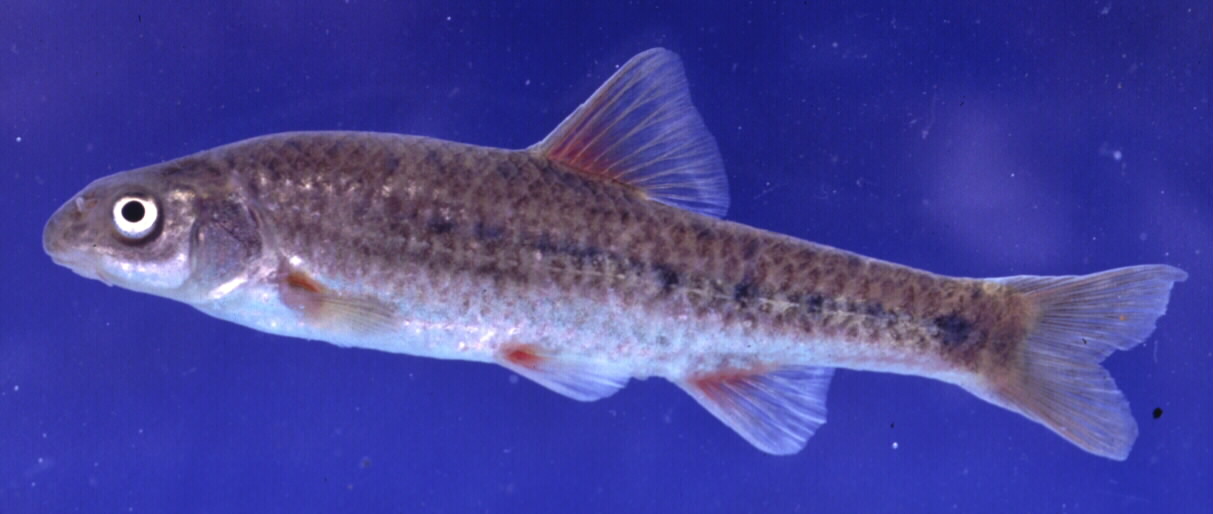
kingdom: Animalia
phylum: Chordata
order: Cypriniformes
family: Cyprinidae
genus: Pseudobarbus
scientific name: Pseudobarbus burgi
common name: Berg river redfin
